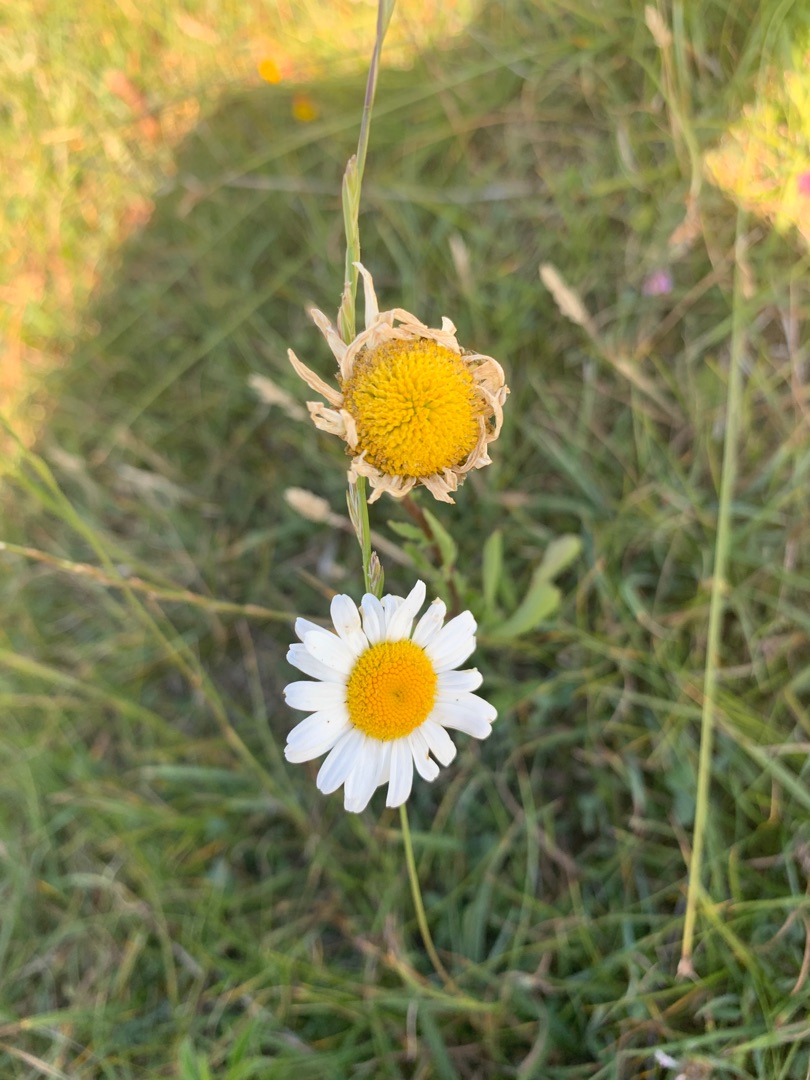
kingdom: Plantae
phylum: Tracheophyta
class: Magnoliopsida
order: Asterales
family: Asteraceae
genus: Leucanthemum
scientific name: Leucanthemum vulgare
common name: Hvid okseøje
